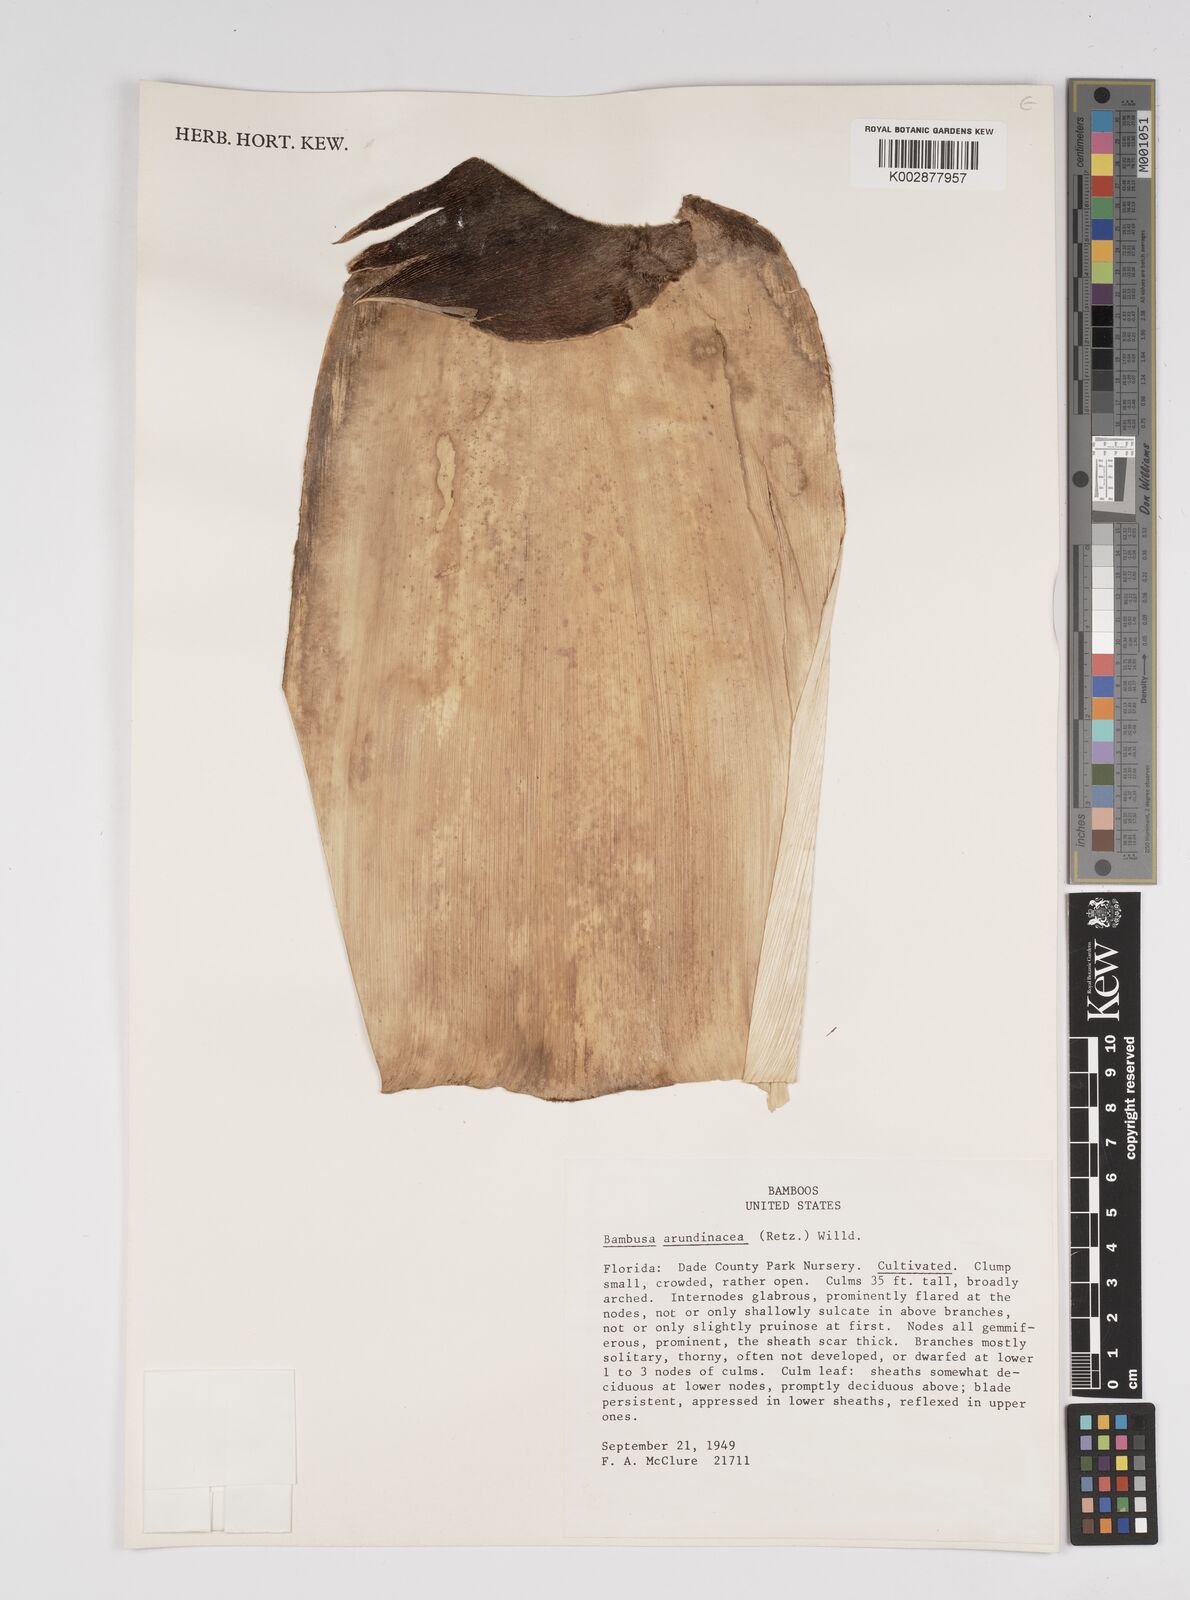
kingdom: Plantae
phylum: Tracheophyta
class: Liliopsida
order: Poales
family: Poaceae
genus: Bambusa
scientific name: Bambusa bambos
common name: Indian thorny bamboo
